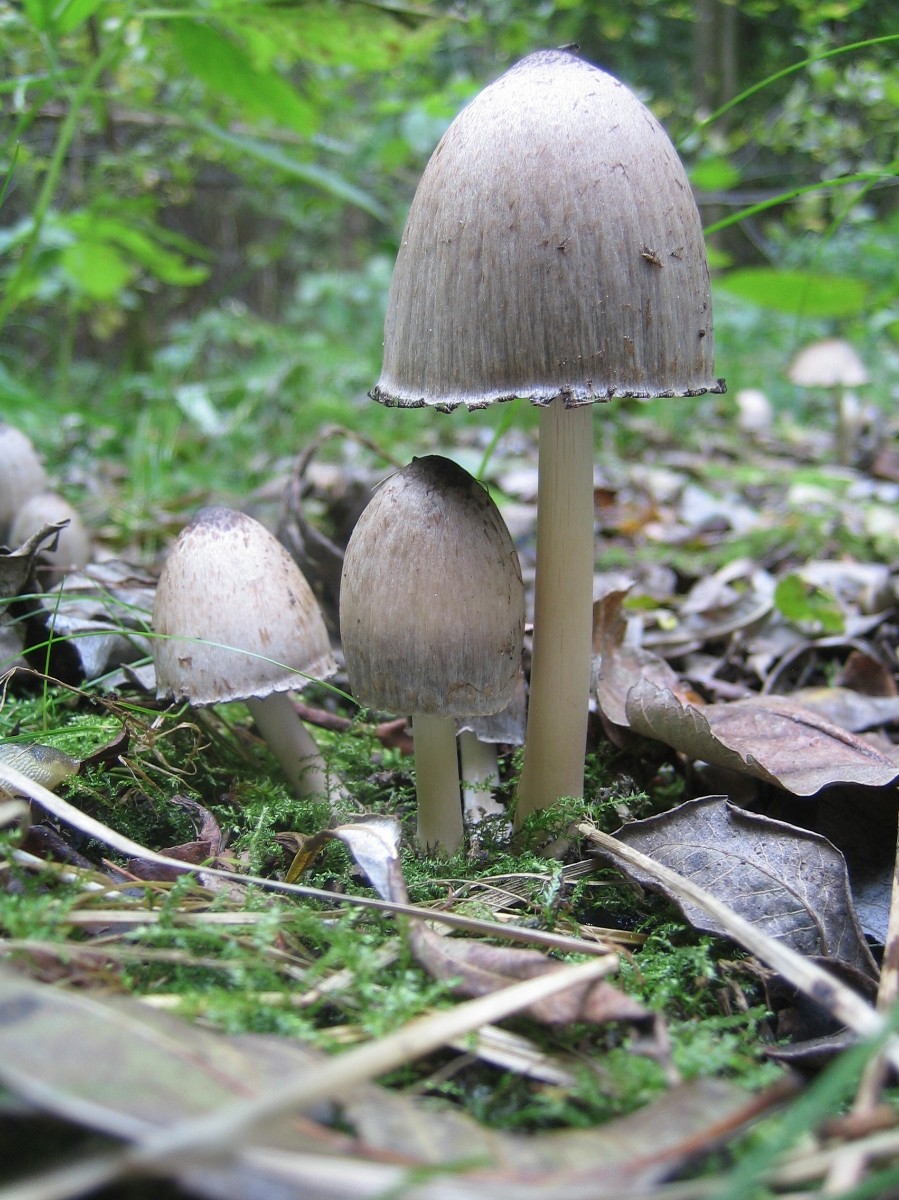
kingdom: Fungi
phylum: Basidiomycota
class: Agaricomycetes
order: Agaricales
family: Psathyrellaceae
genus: Coprinopsis
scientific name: Coprinopsis atramentaria
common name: almindelig blækhat
